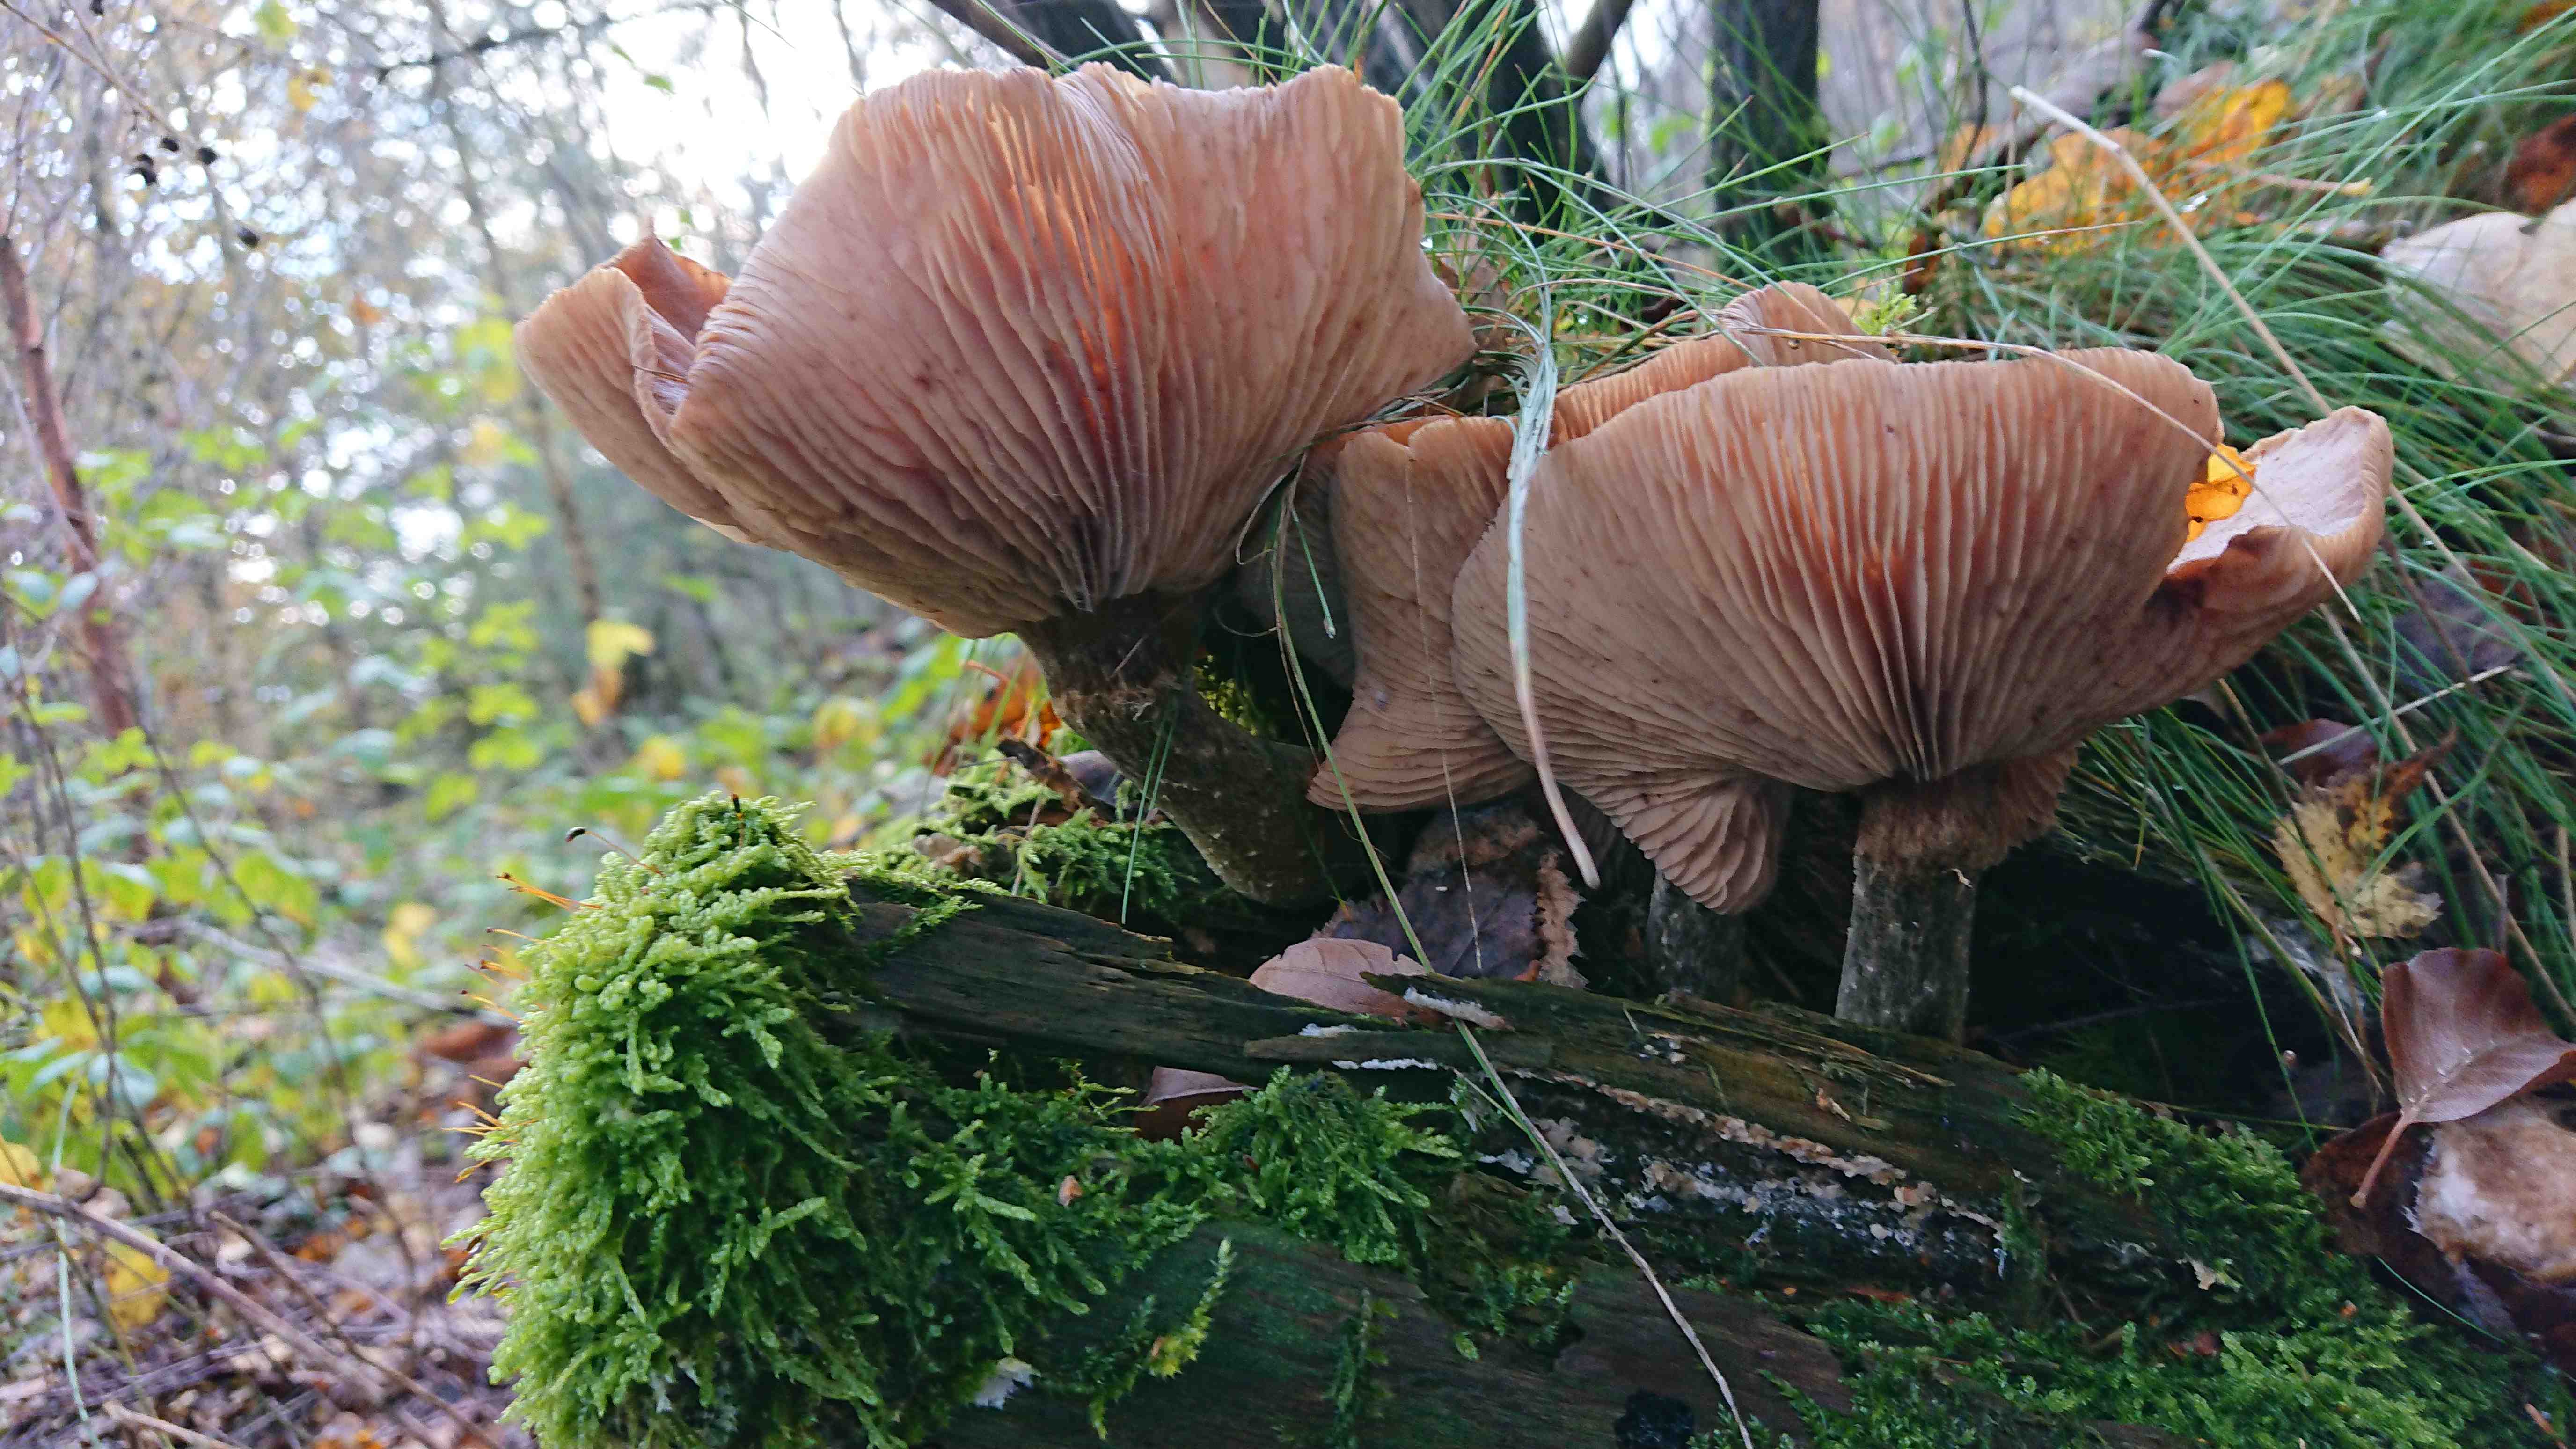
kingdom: Fungi
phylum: Basidiomycota
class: Agaricomycetes
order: Agaricales
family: Physalacriaceae
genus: Armillaria
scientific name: Armillaria ostoyae
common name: mørk honningsvamp
